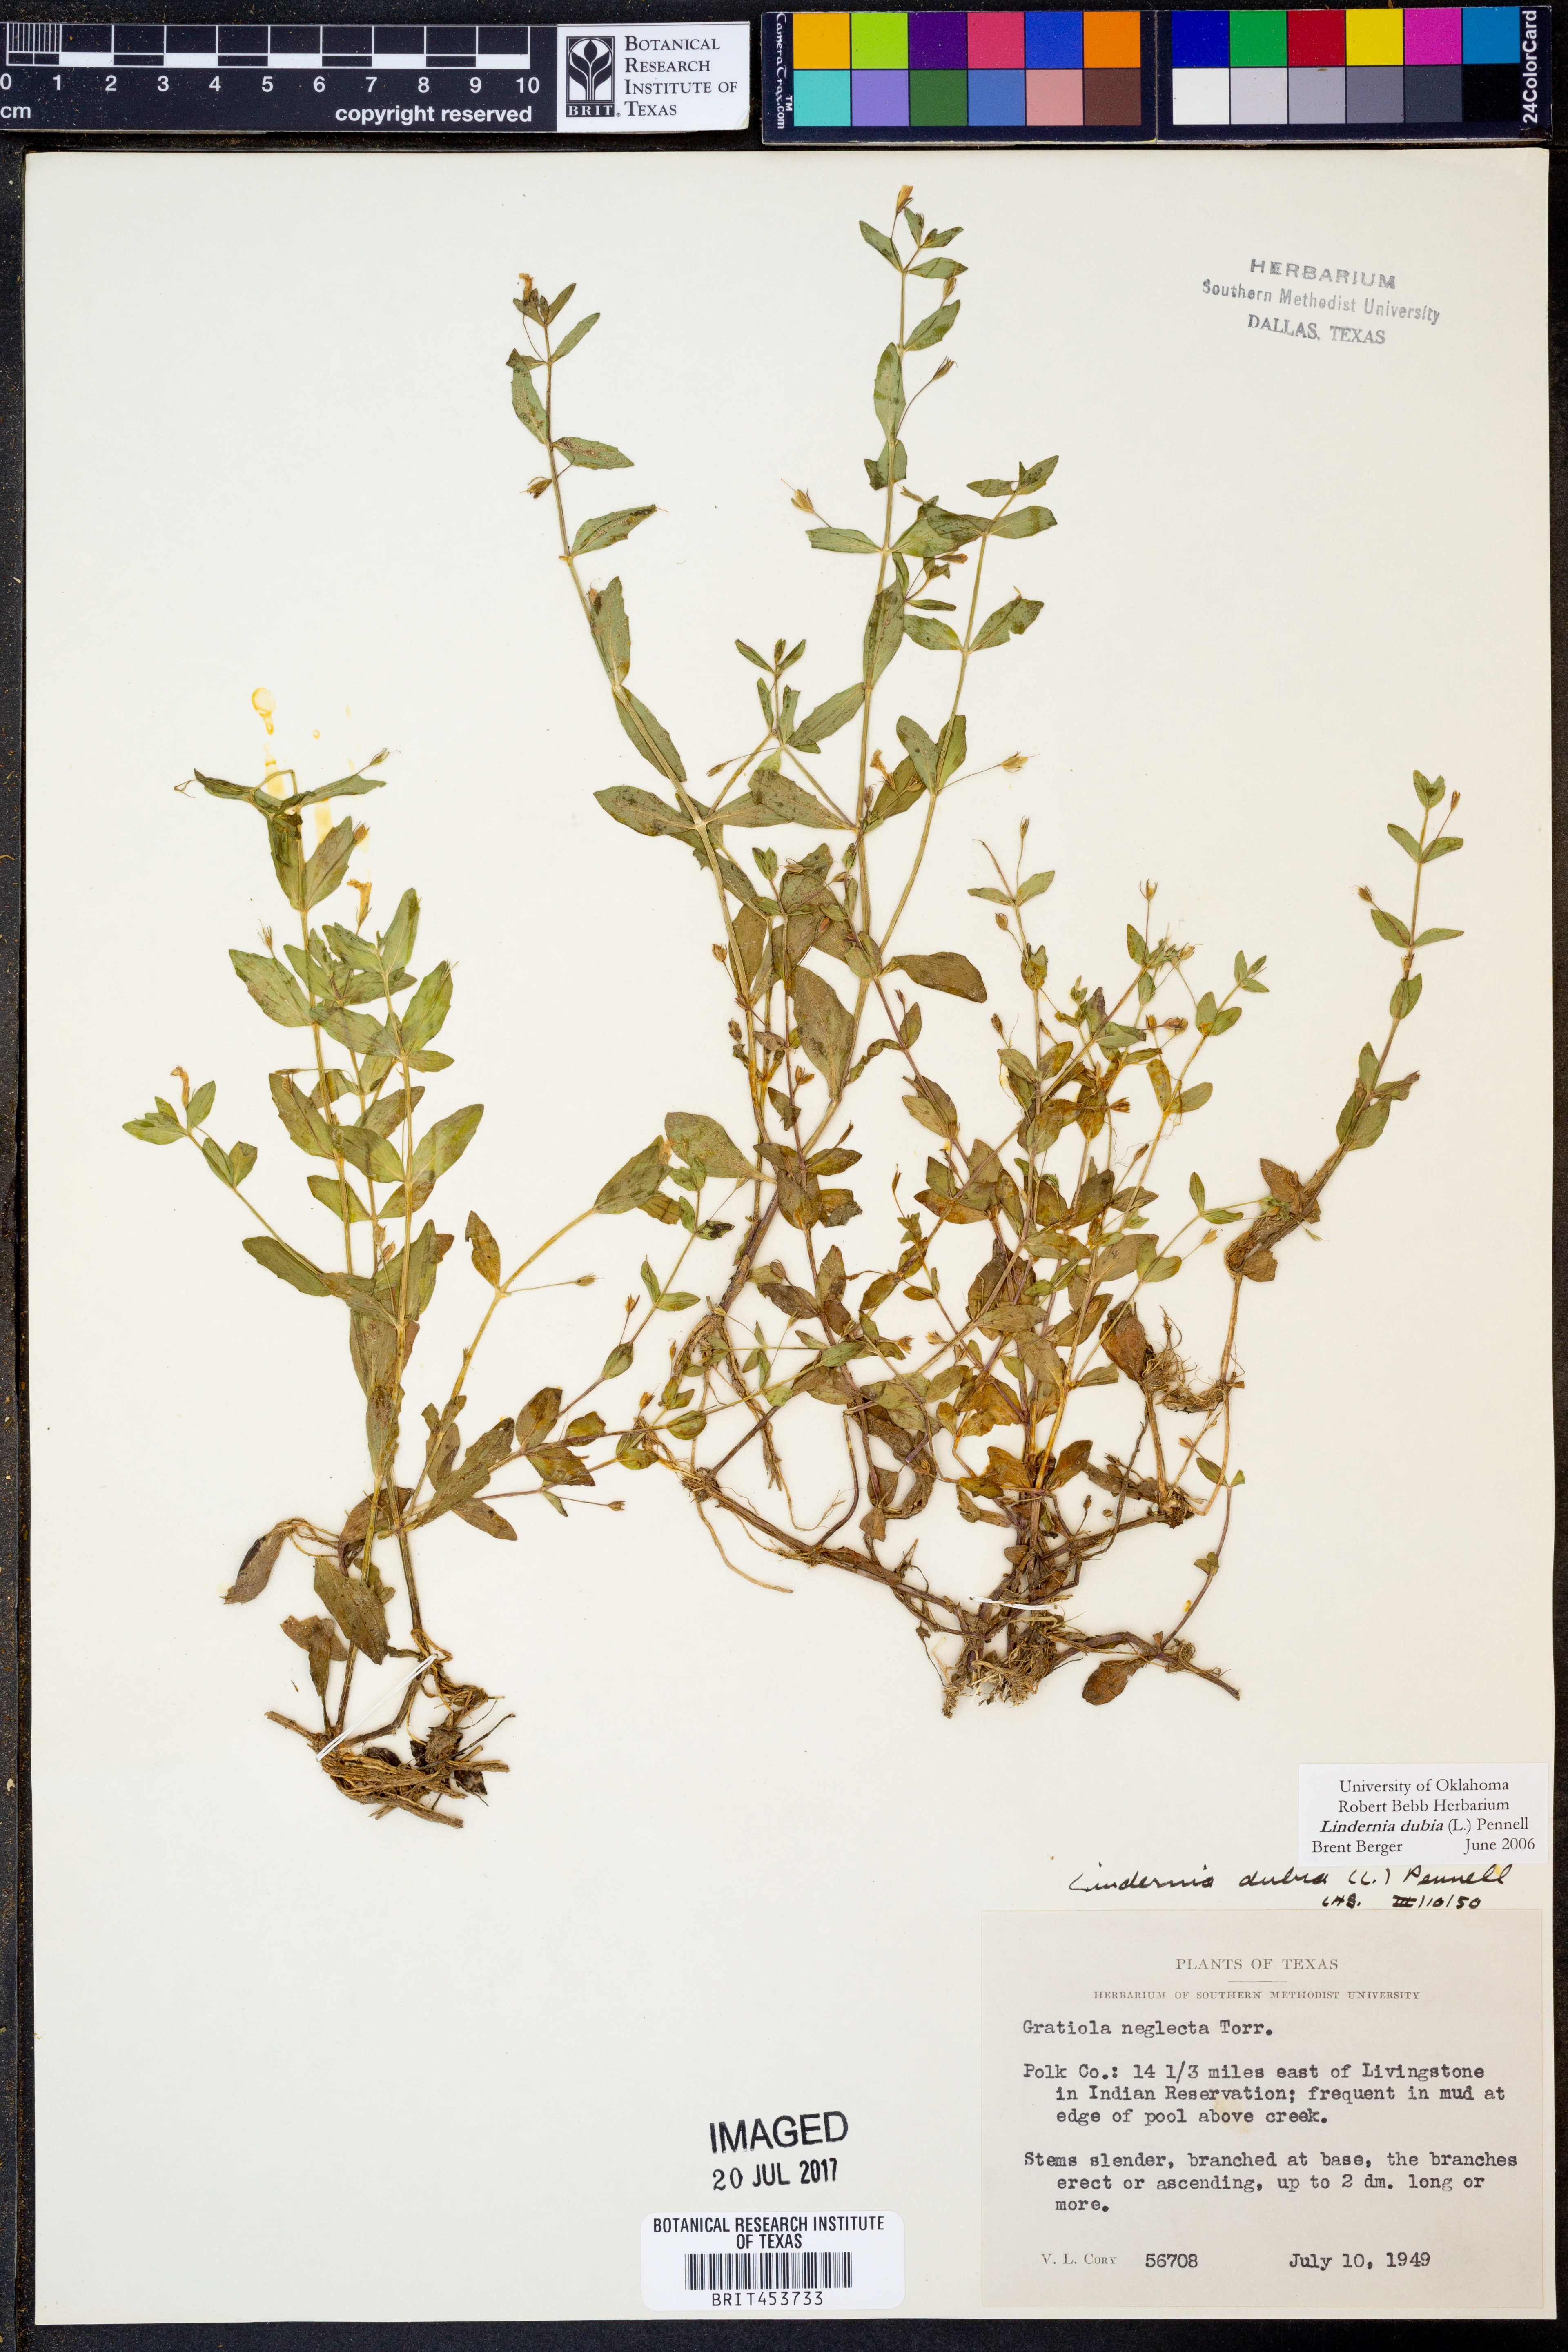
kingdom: Plantae
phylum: Tracheophyta
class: Magnoliopsida
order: Lamiales
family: Linderniaceae
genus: Lindernia
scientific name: Lindernia dubia
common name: Annual false pimpernel
